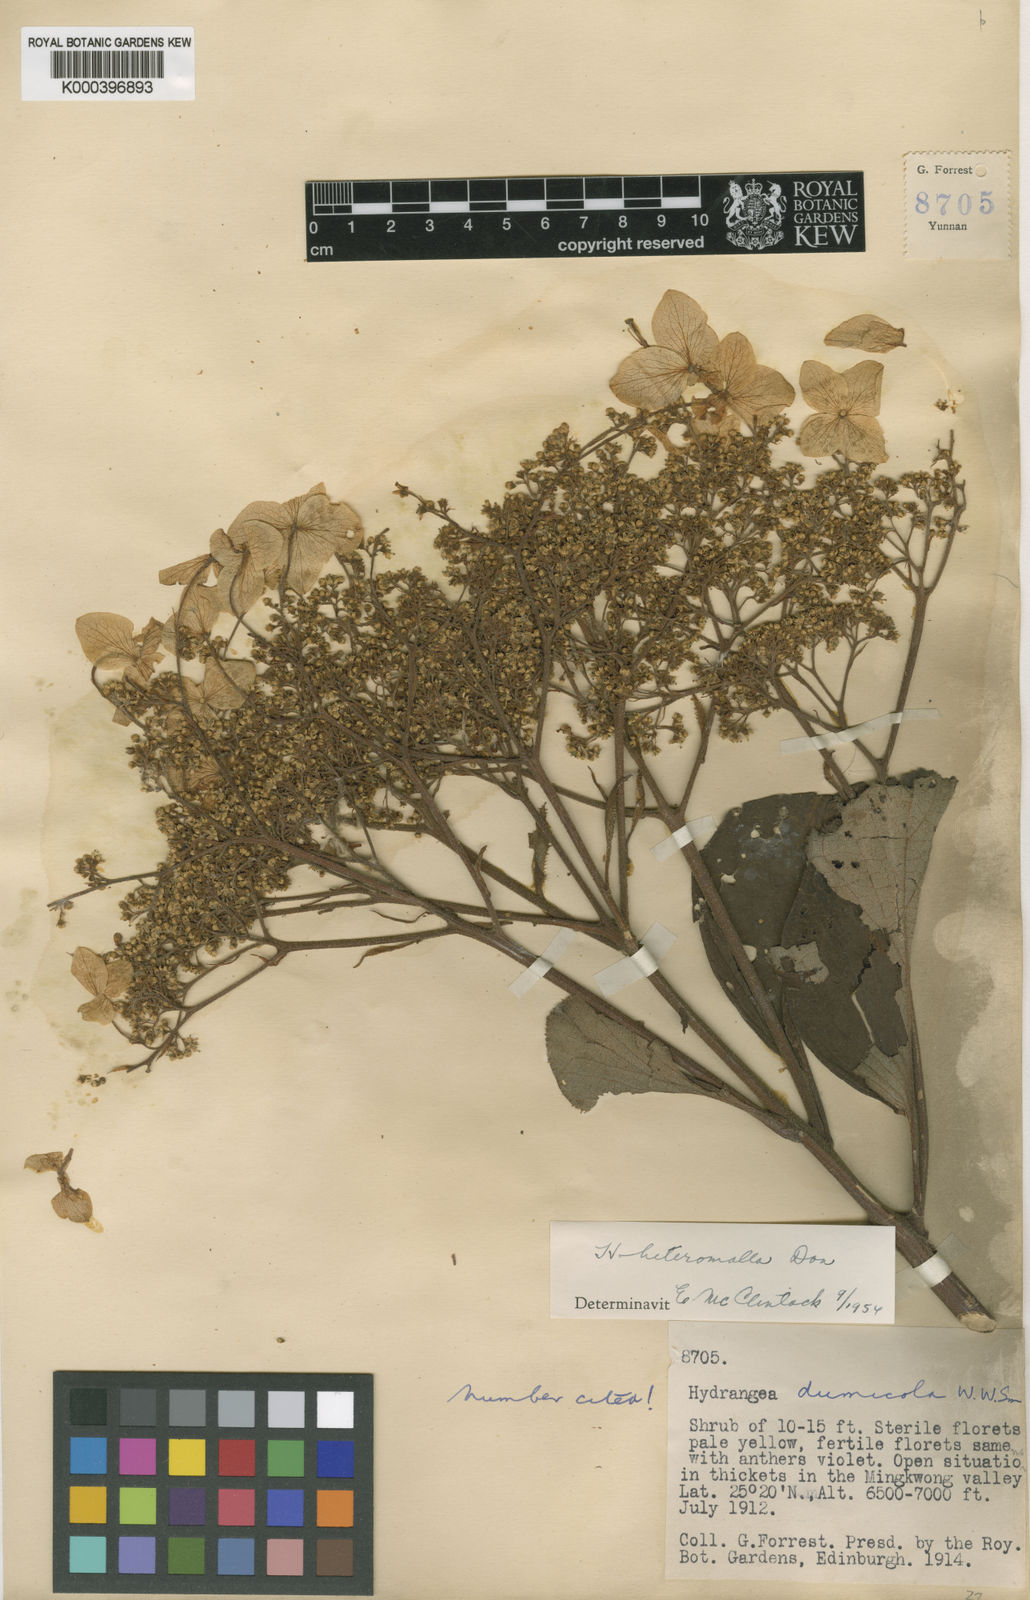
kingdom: Plantae
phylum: Tracheophyta
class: Magnoliopsida
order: Cornales
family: Hydrangeaceae
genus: Hydrangea
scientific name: Hydrangea heteromalla
